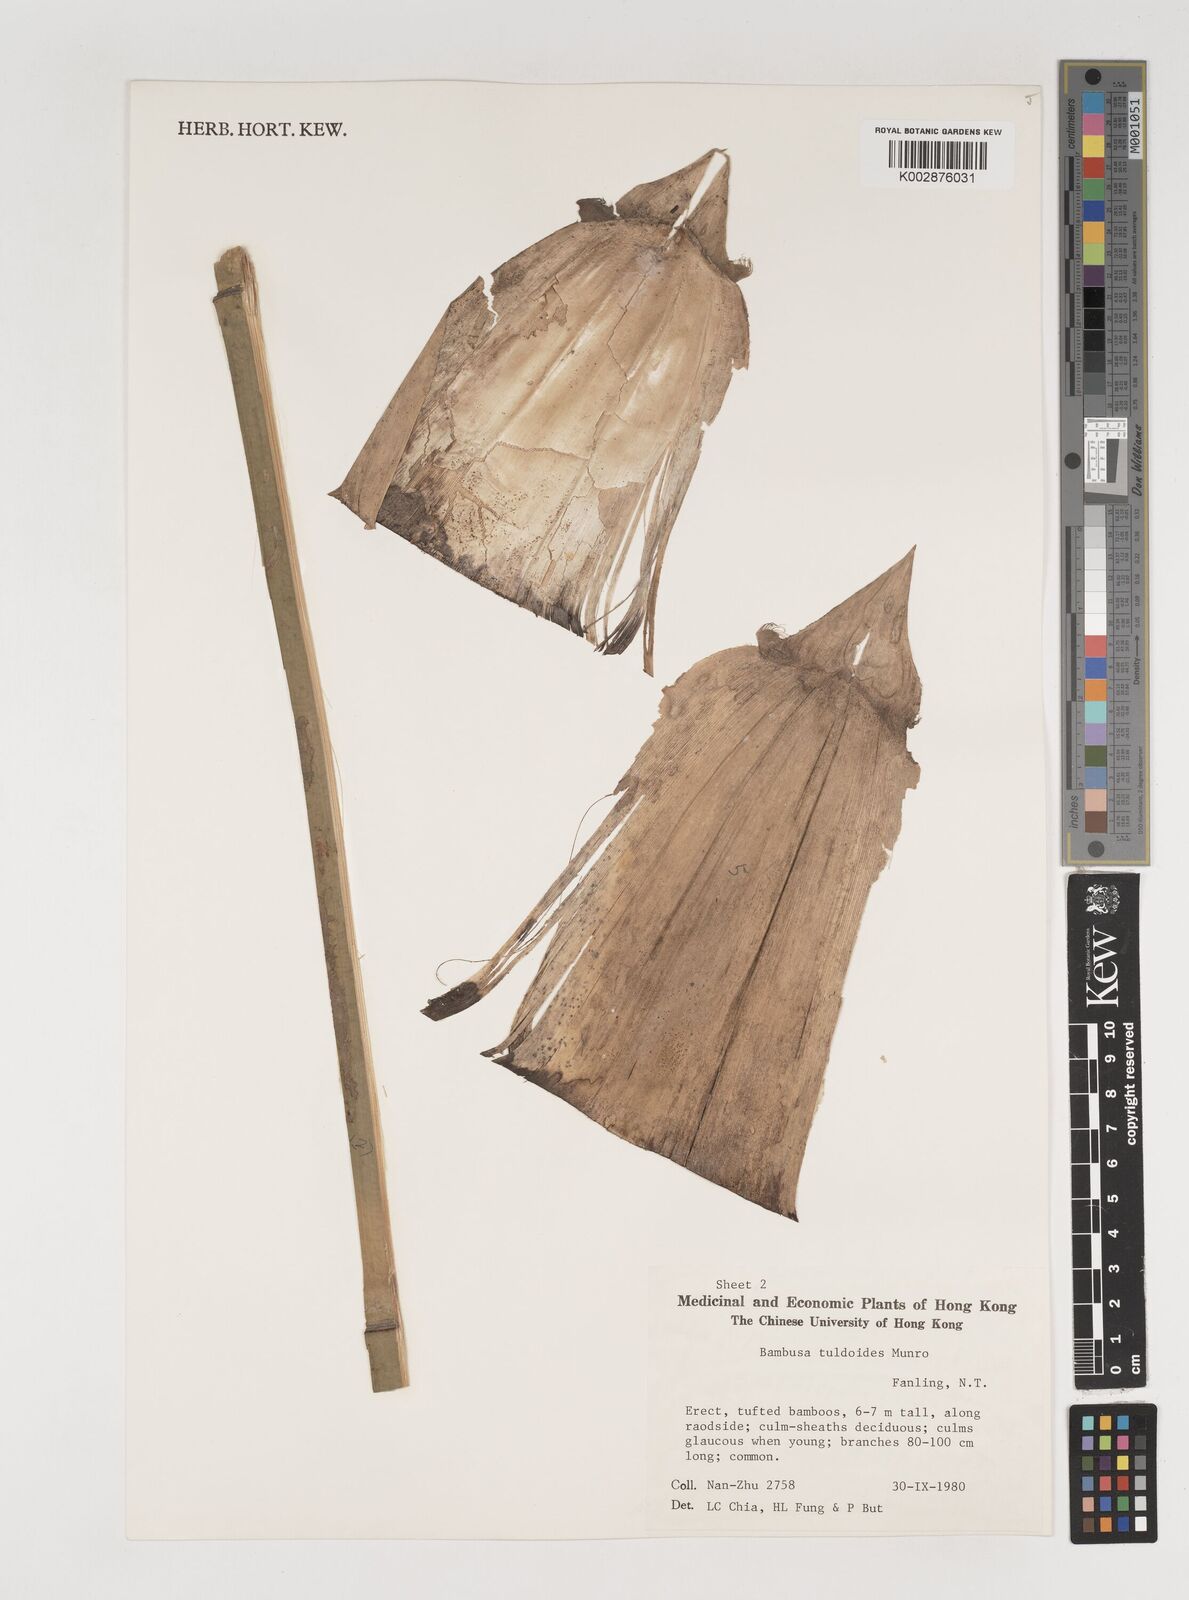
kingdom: Plantae
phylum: Tracheophyta
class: Liliopsida
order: Poales
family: Poaceae
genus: Bambusa
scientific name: Bambusa tuldoides
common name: Verdant bamboo
